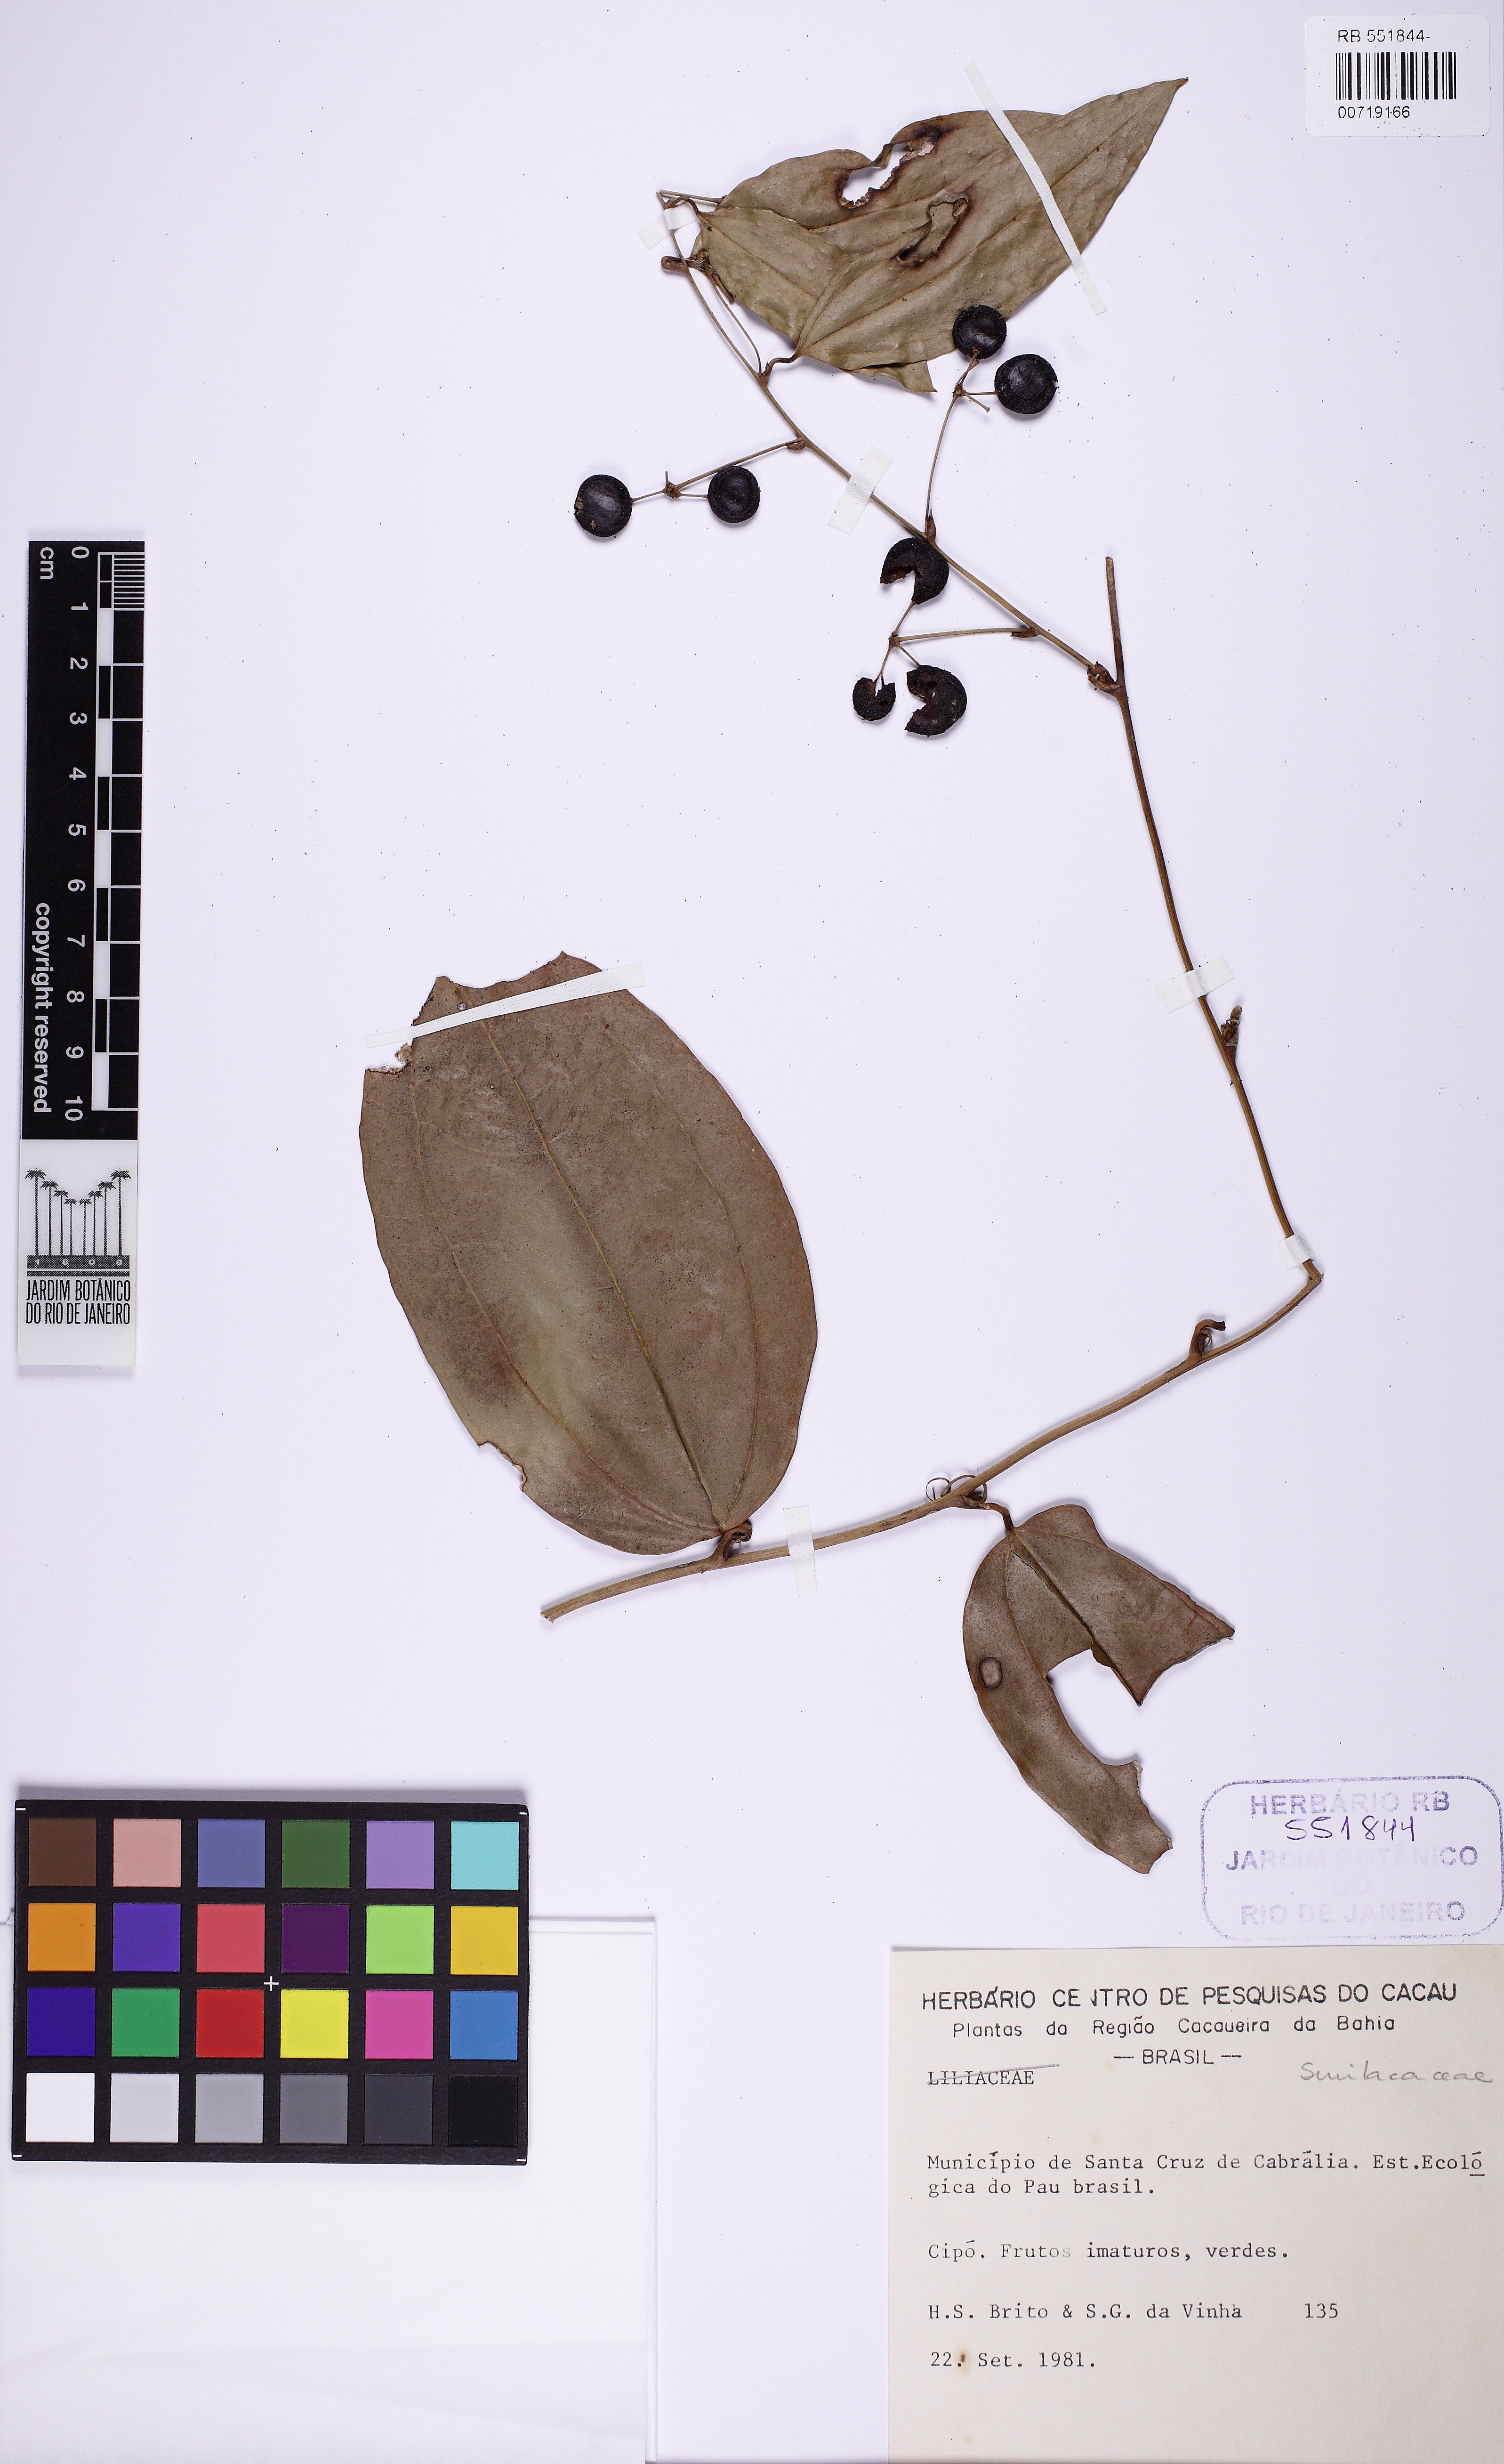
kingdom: Plantae
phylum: Tracheophyta
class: Liliopsida
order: Liliales
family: Smilacaceae
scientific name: Smilacaceae
